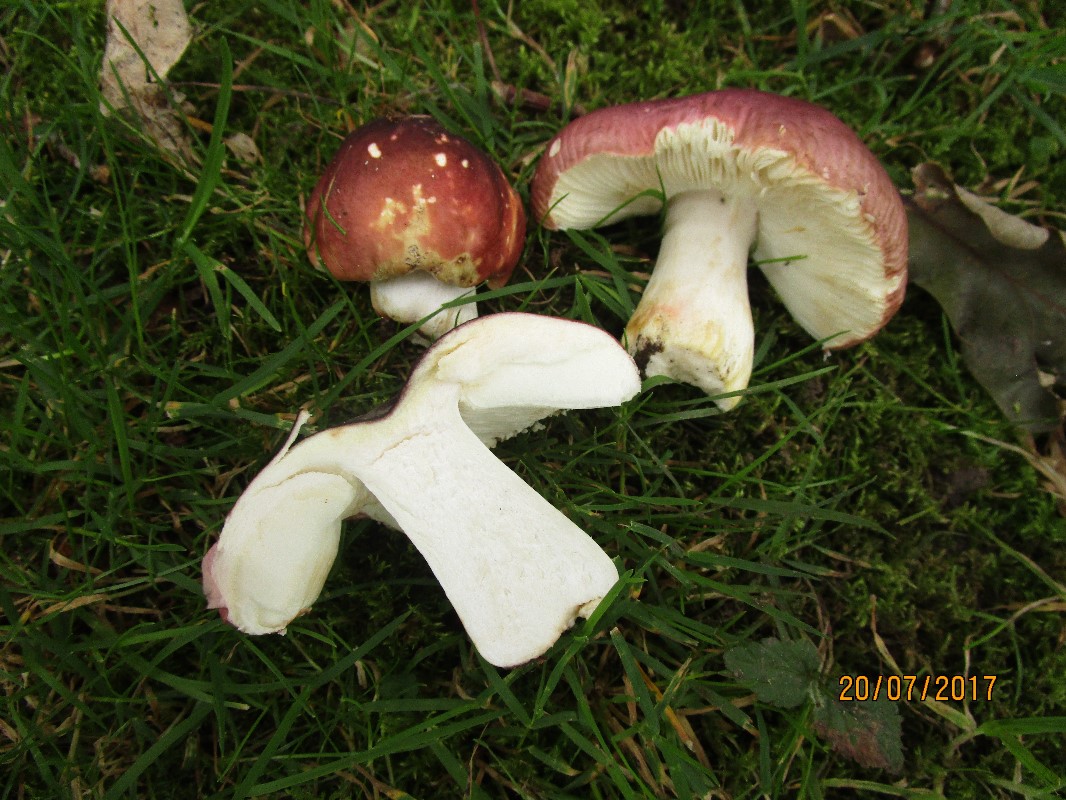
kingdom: Fungi
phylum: Basidiomycota
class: Agaricomycetes
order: Russulales
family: Russulaceae
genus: Russula
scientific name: Russula graveolens
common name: bugtet skørhat
